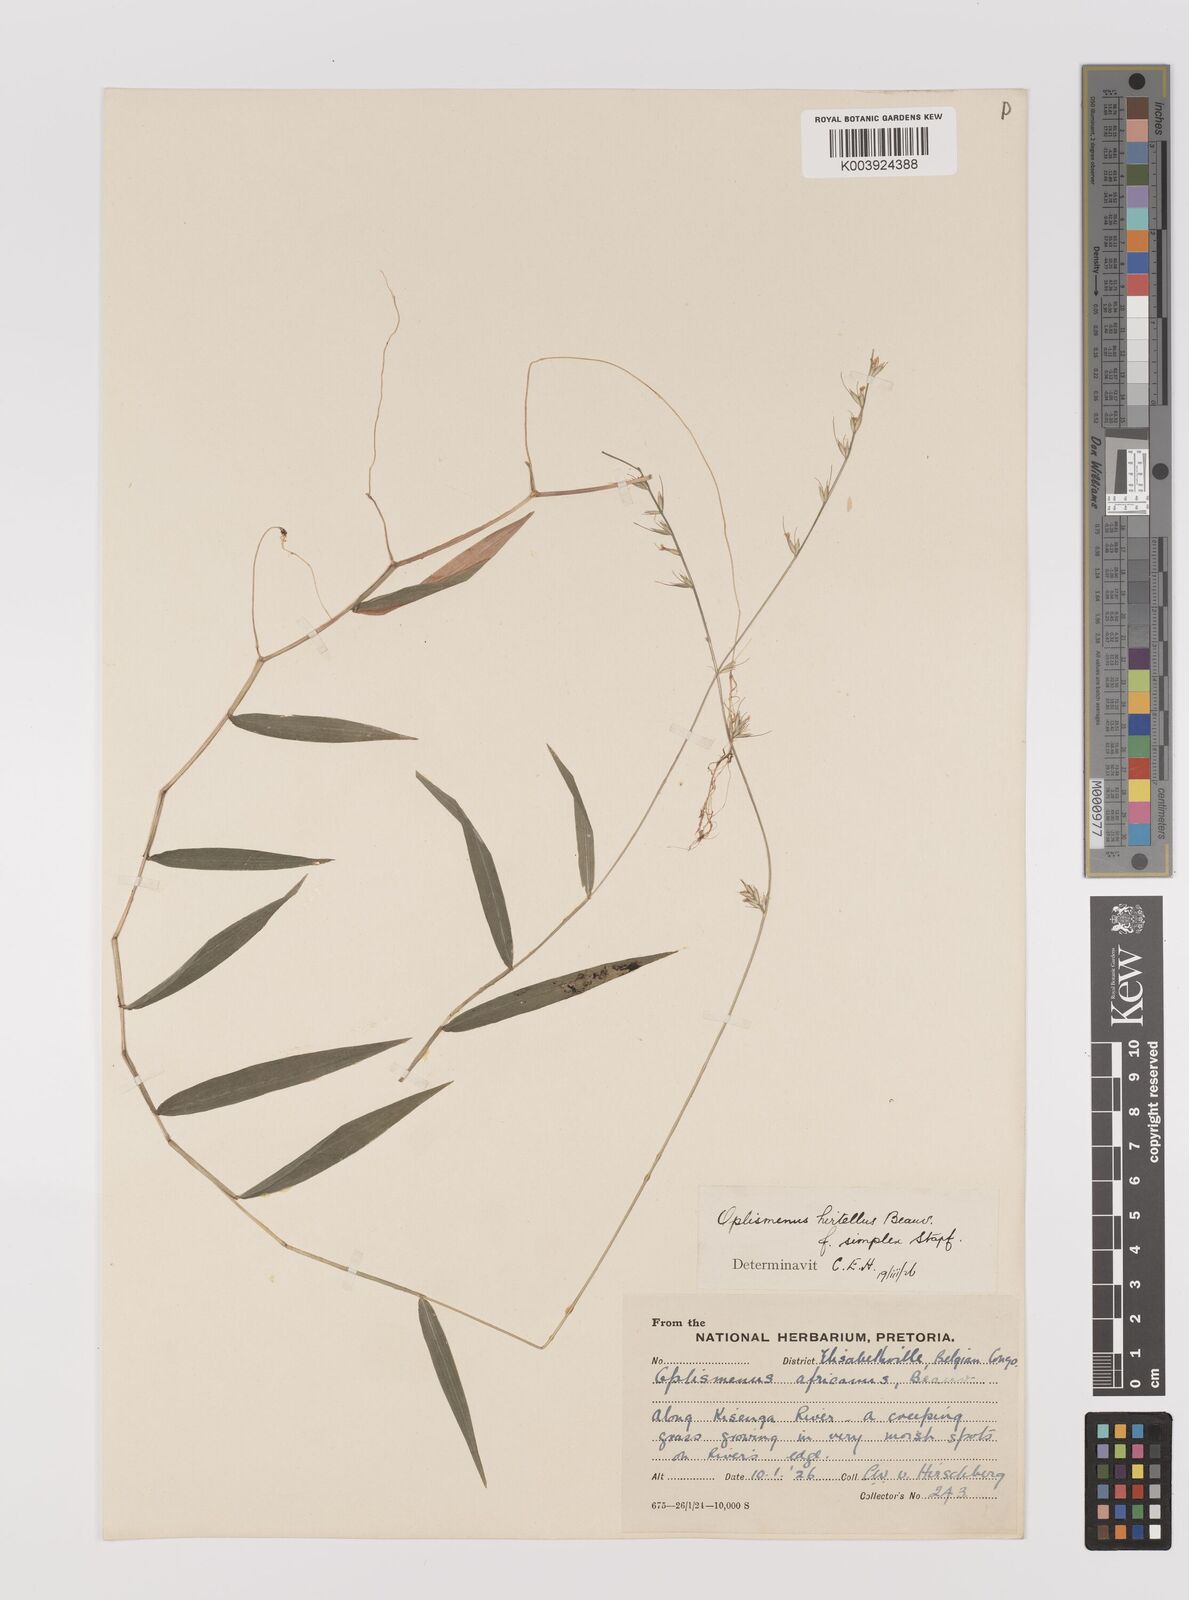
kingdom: Plantae
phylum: Tracheophyta
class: Liliopsida
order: Poales
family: Poaceae
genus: Oplismenus
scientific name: Oplismenus undulatifolius
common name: Wavyleaf basketgrass
